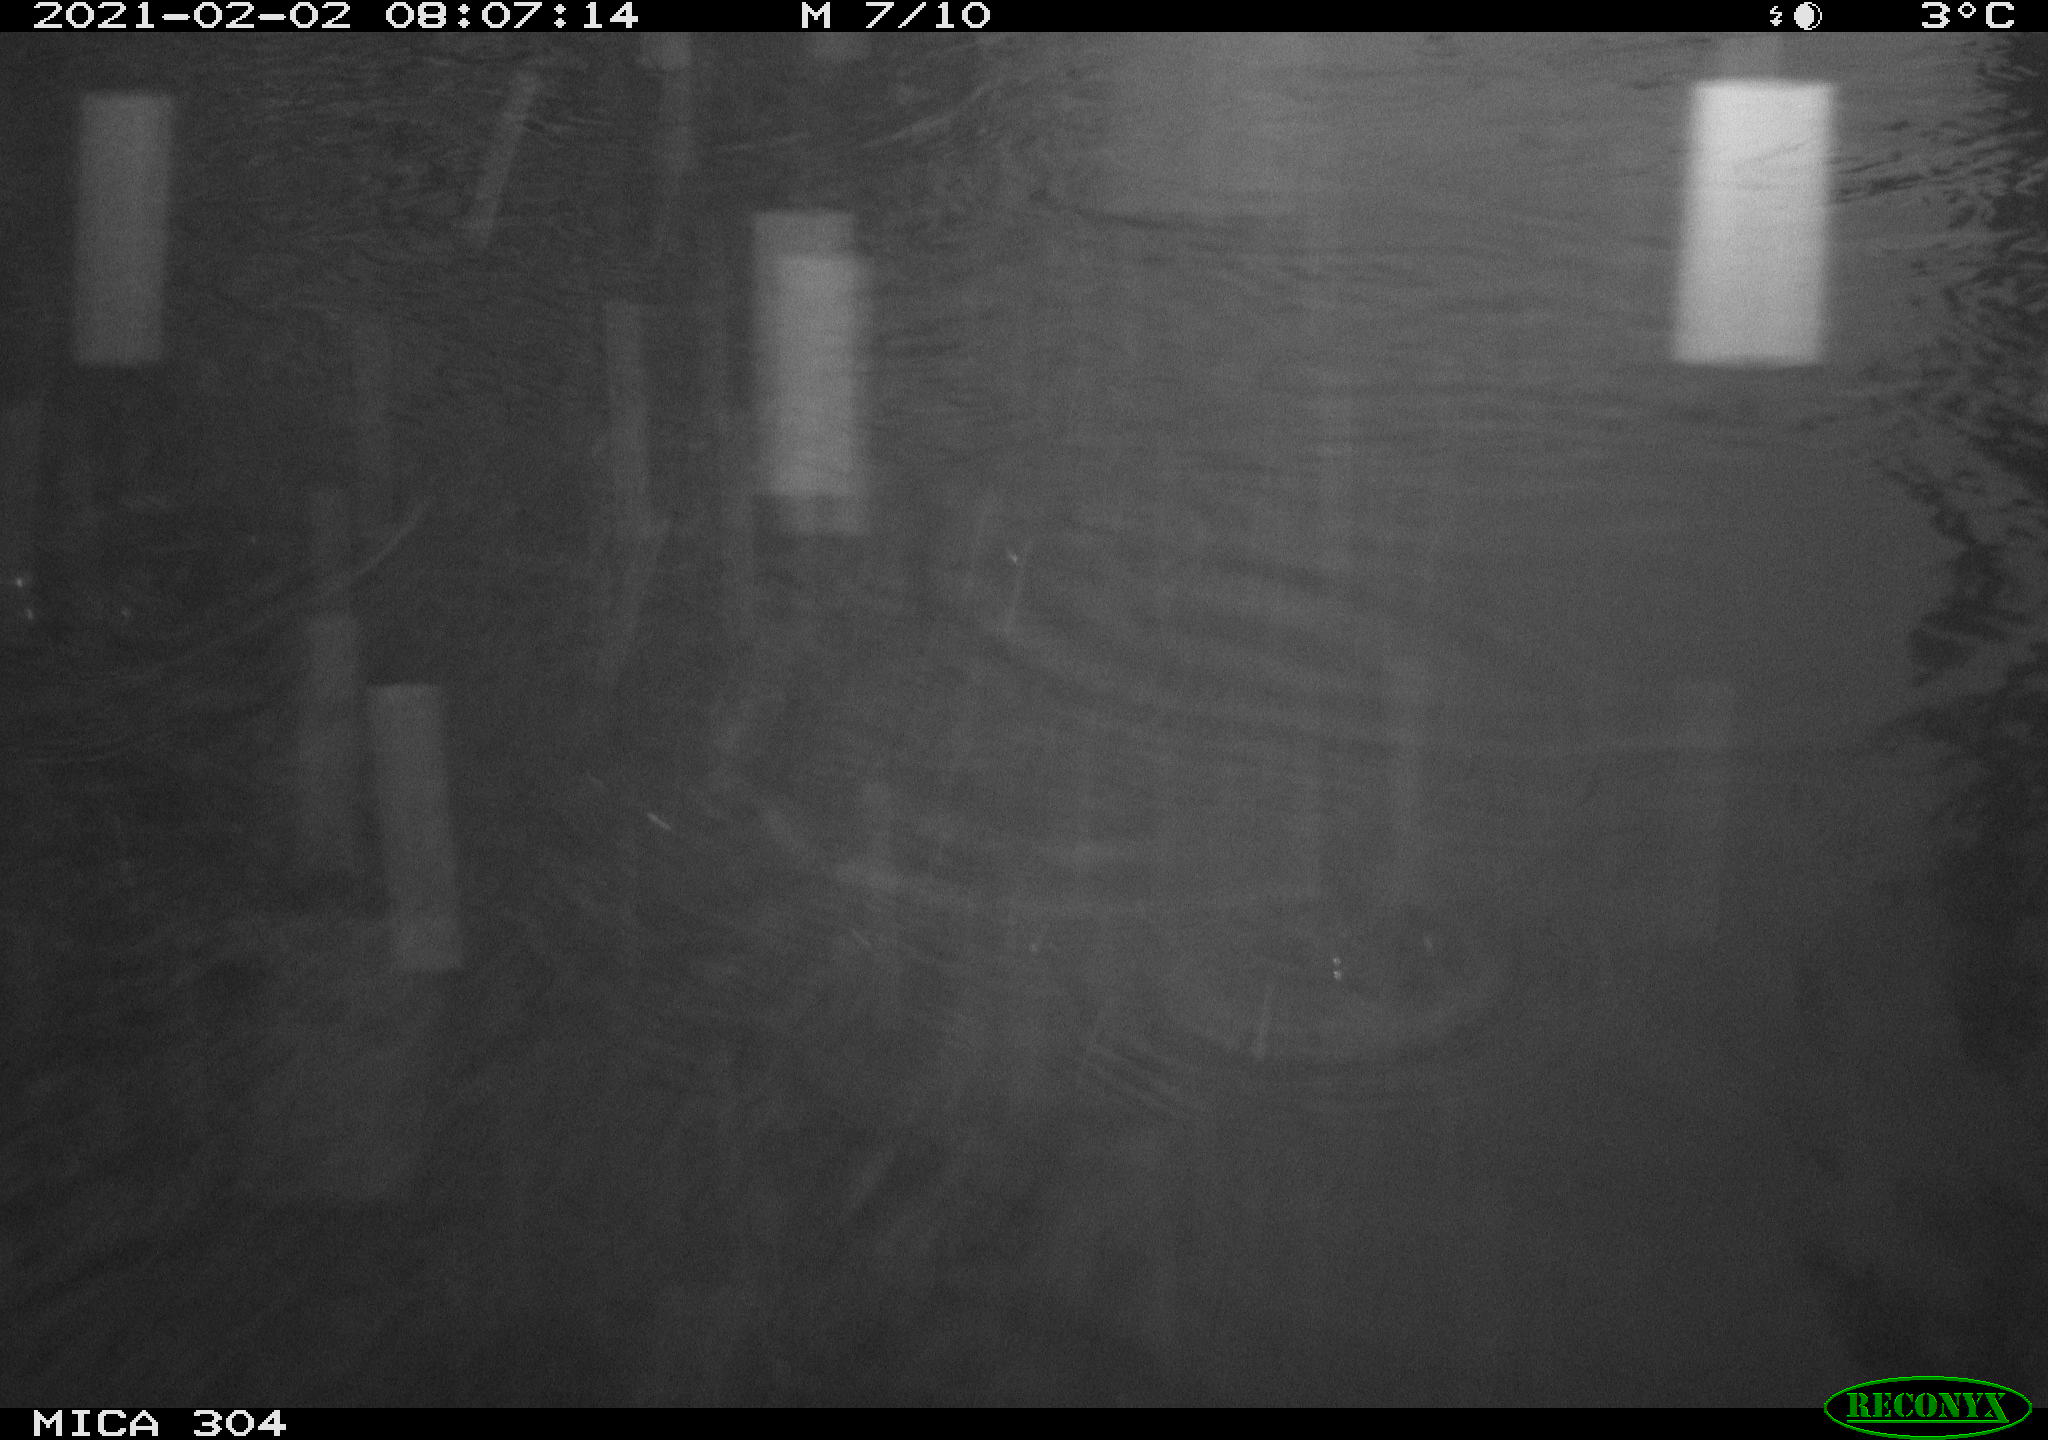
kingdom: Animalia
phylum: Chordata
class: Aves
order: Gruiformes
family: Rallidae
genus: Fulica
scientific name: Fulica atra
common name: Eurasian coot
